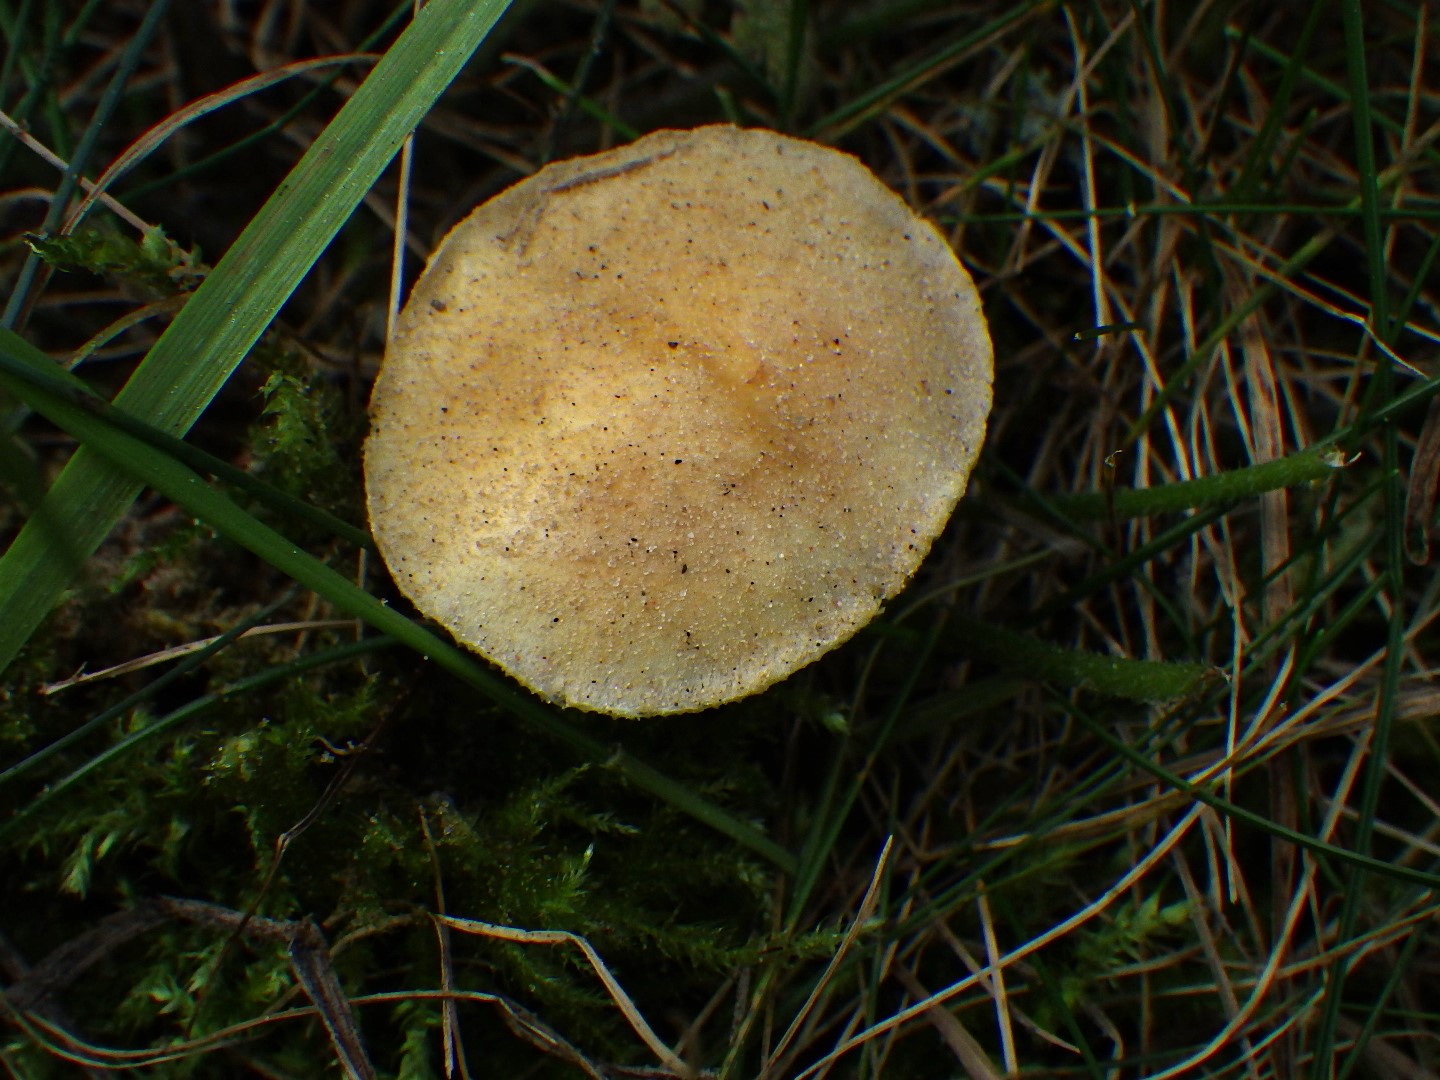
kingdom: Fungi
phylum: Basidiomycota
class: Agaricomycetes
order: Agaricales
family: Hymenogastraceae
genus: Psilocybe
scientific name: Psilocybe coronilla
